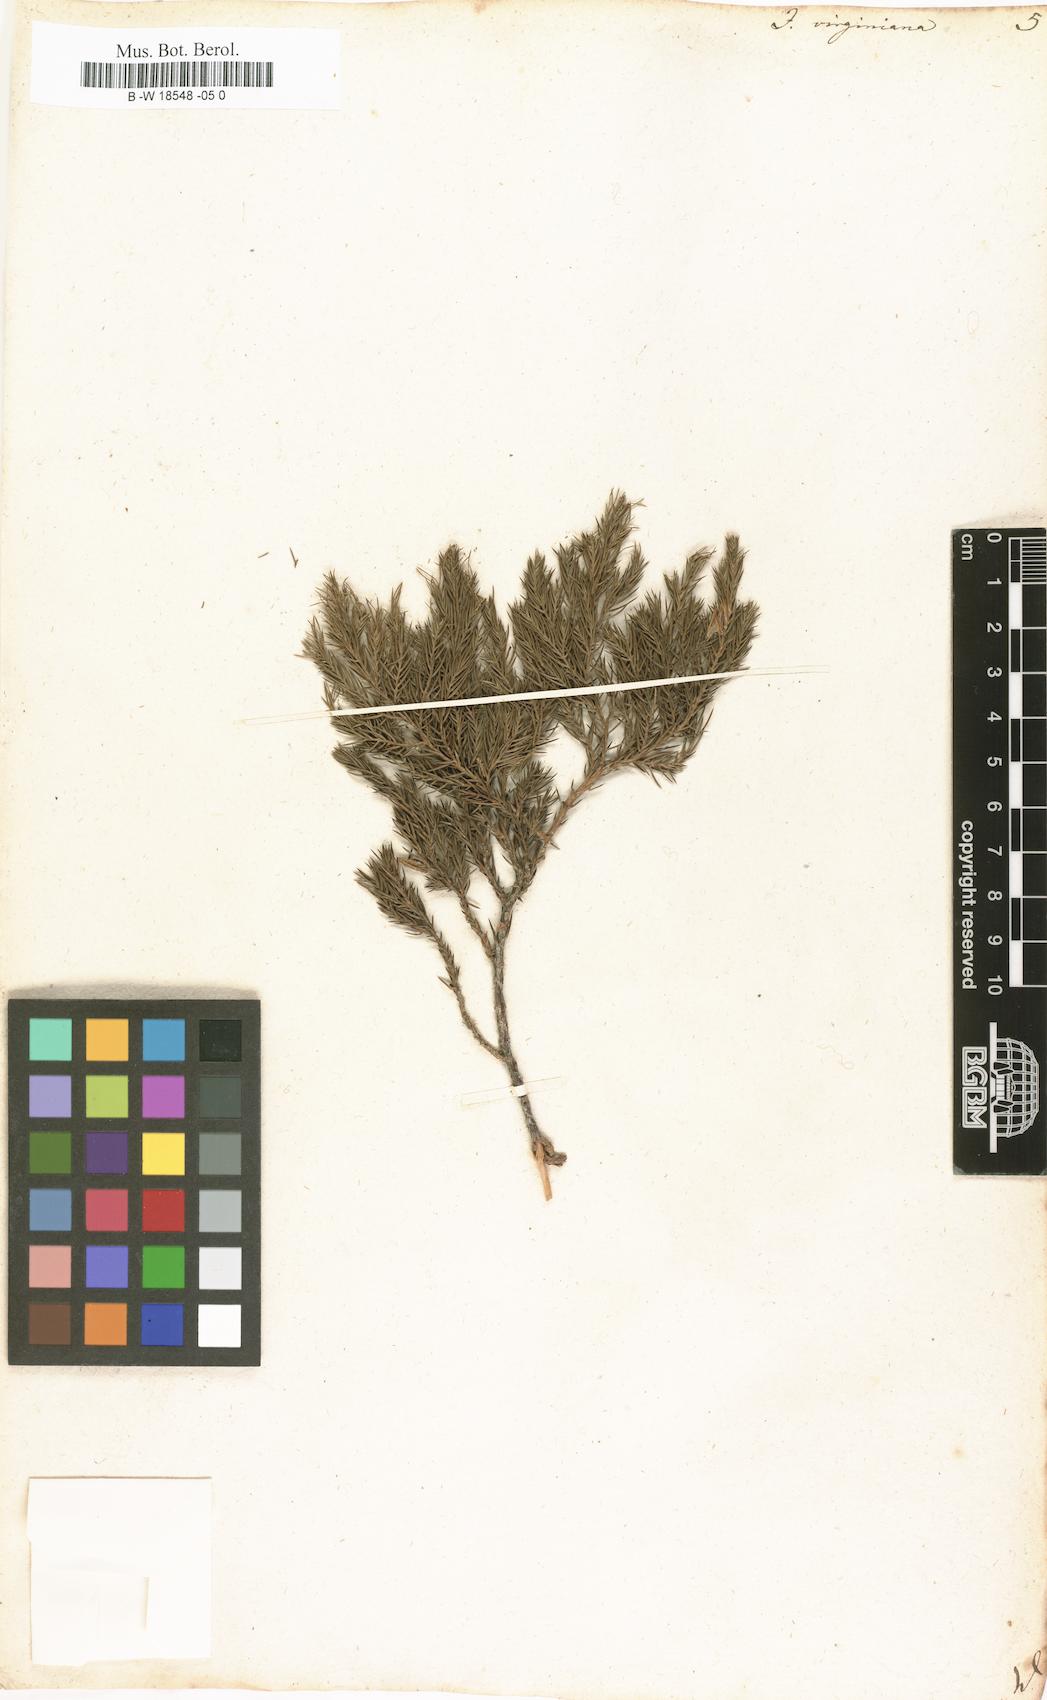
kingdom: Plantae
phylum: Tracheophyta
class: Pinopsida
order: Pinales
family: Cupressaceae
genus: Juniperus
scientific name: Juniperus virginiana
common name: Red juniper
